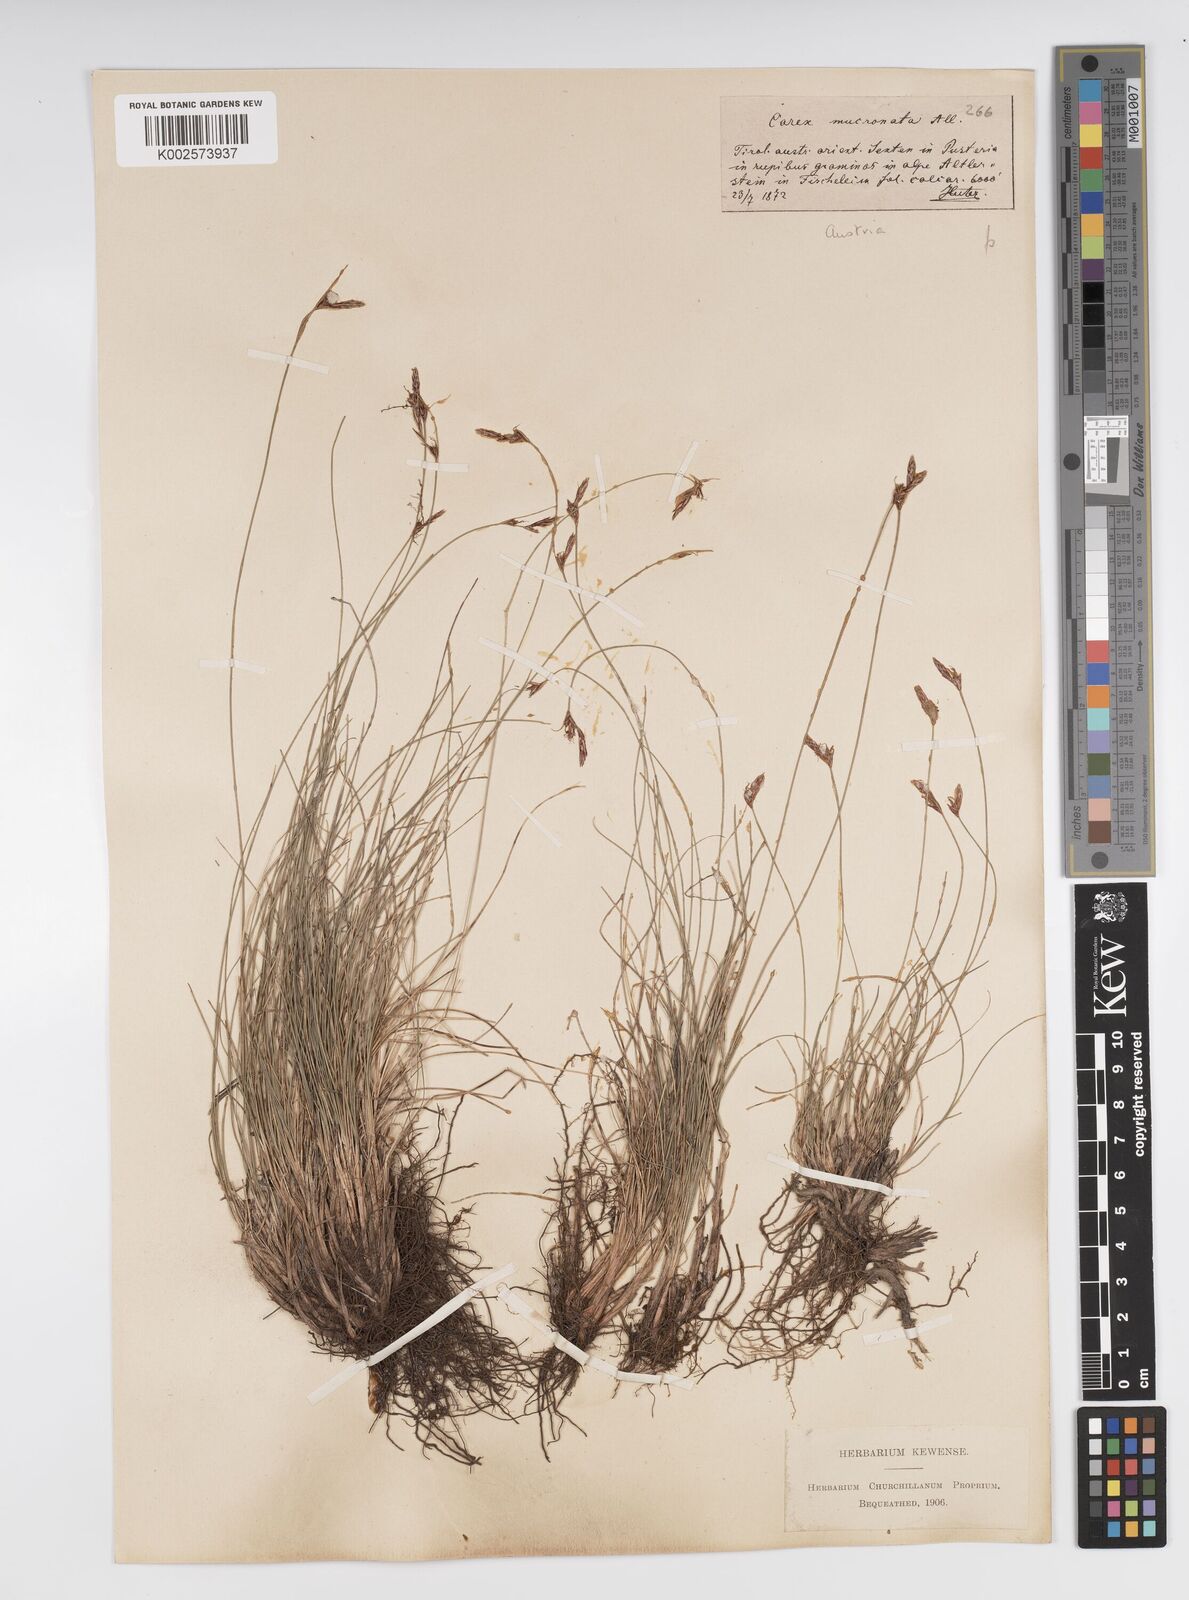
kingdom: Plantae
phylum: Tracheophyta
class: Liliopsida
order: Poales
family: Cyperaceae
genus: Carex
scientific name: Carex mucronata
